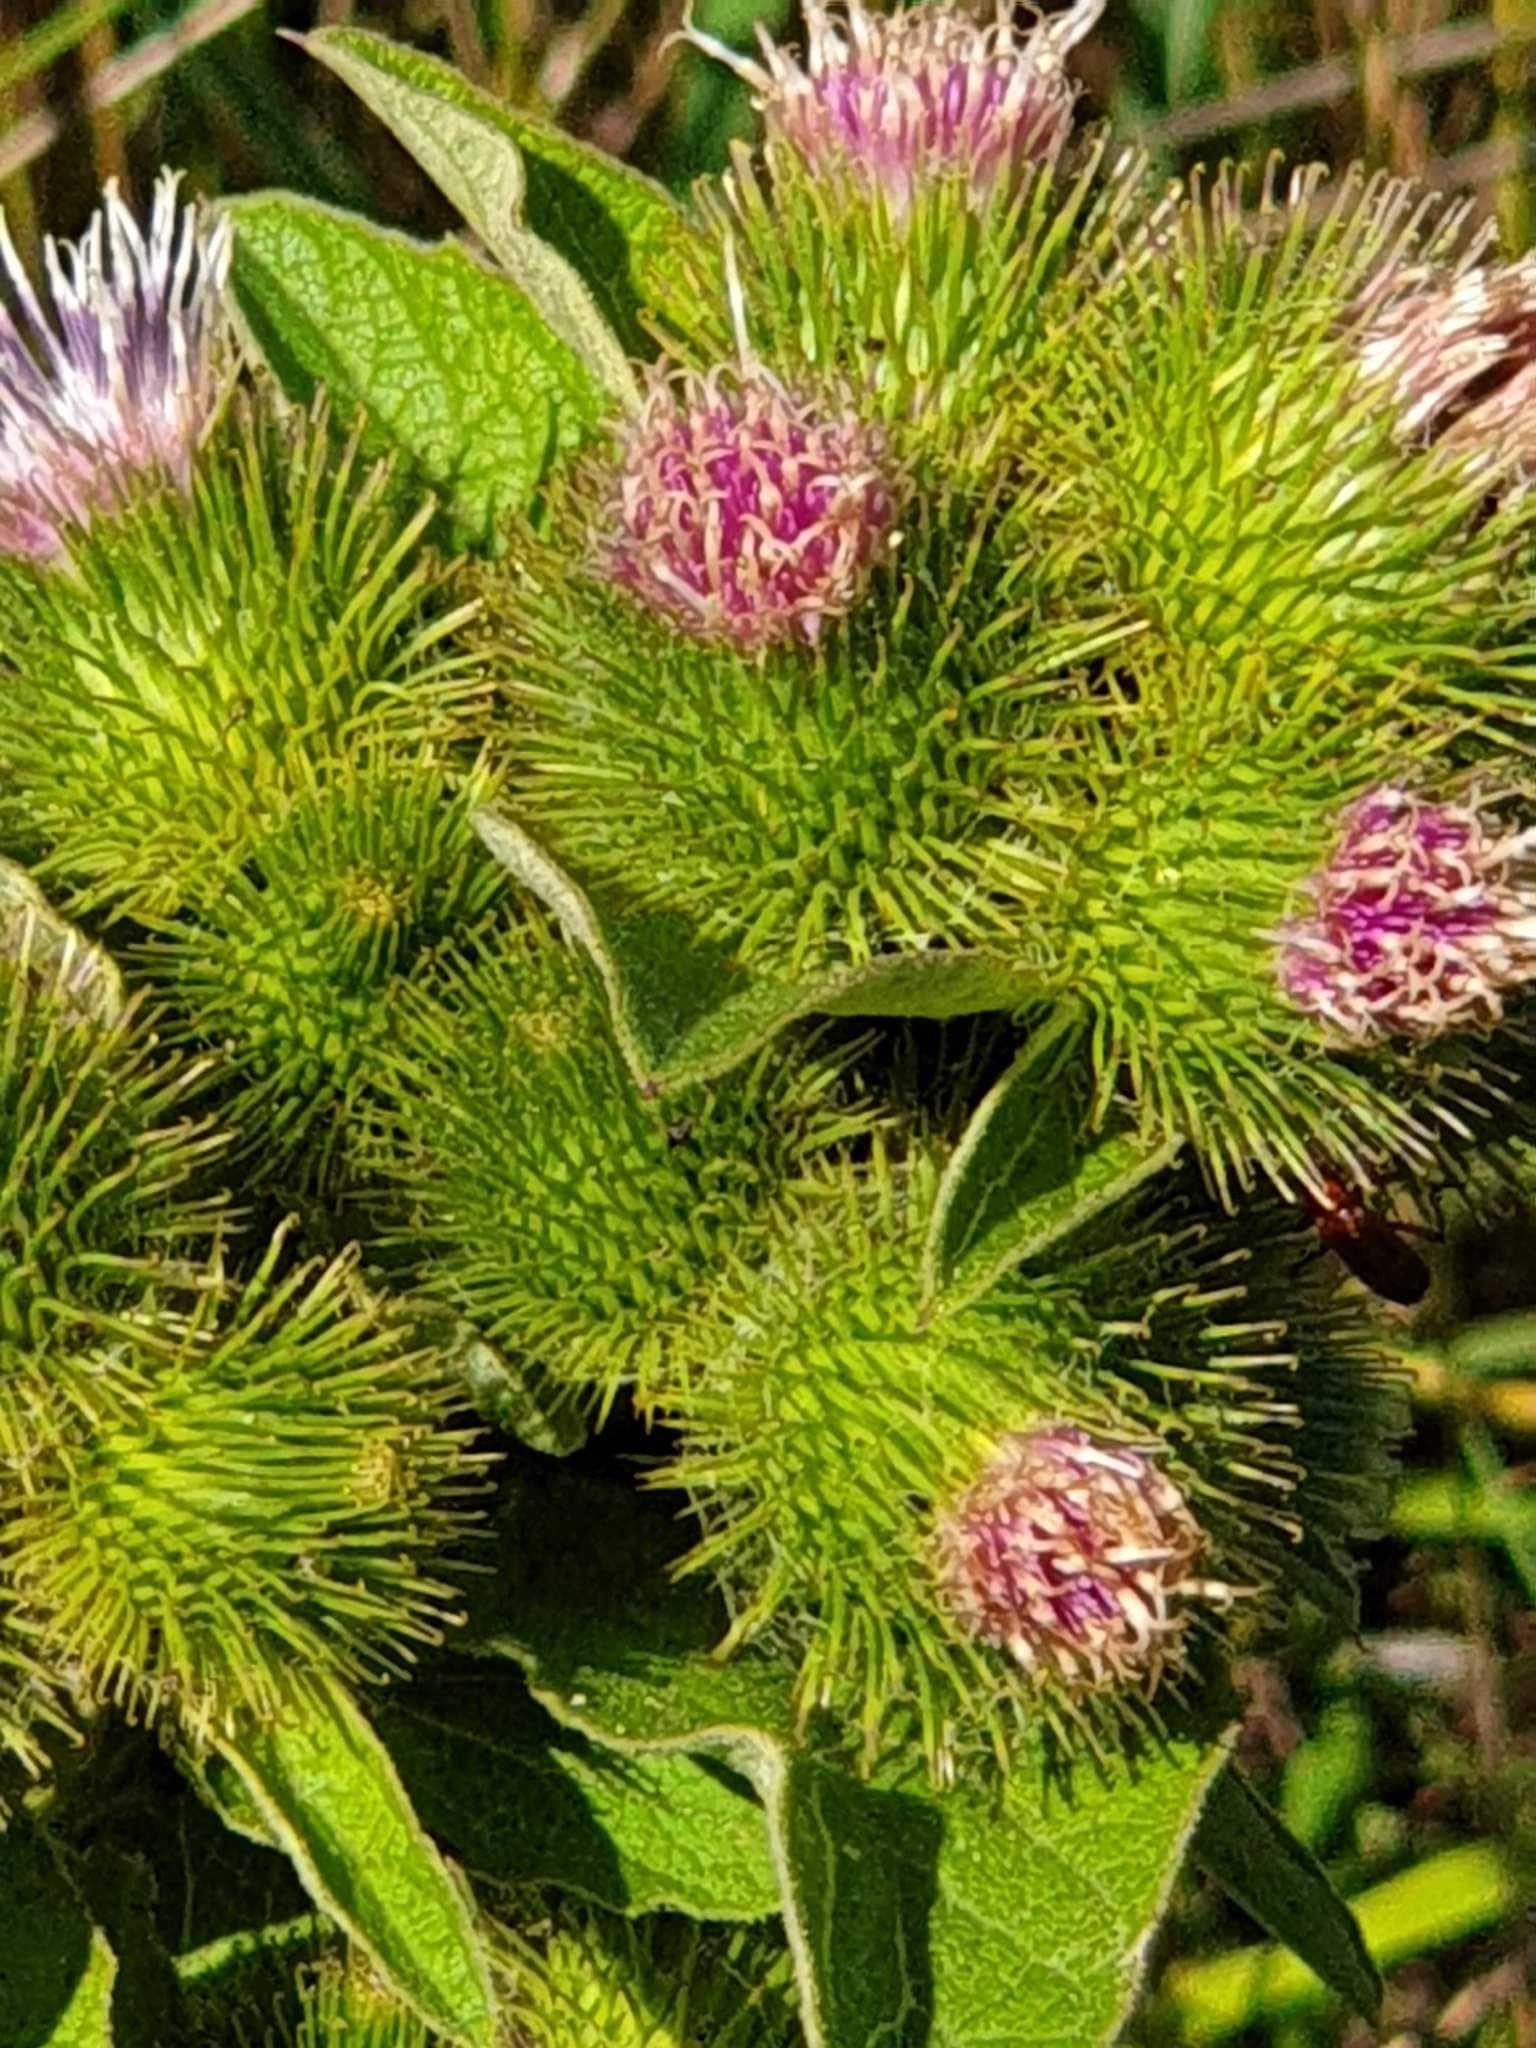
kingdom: Plantae
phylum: Tracheophyta
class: Magnoliopsida
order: Asterales
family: Asteraceae
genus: Arctium
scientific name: Arctium minus
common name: Liden burre
